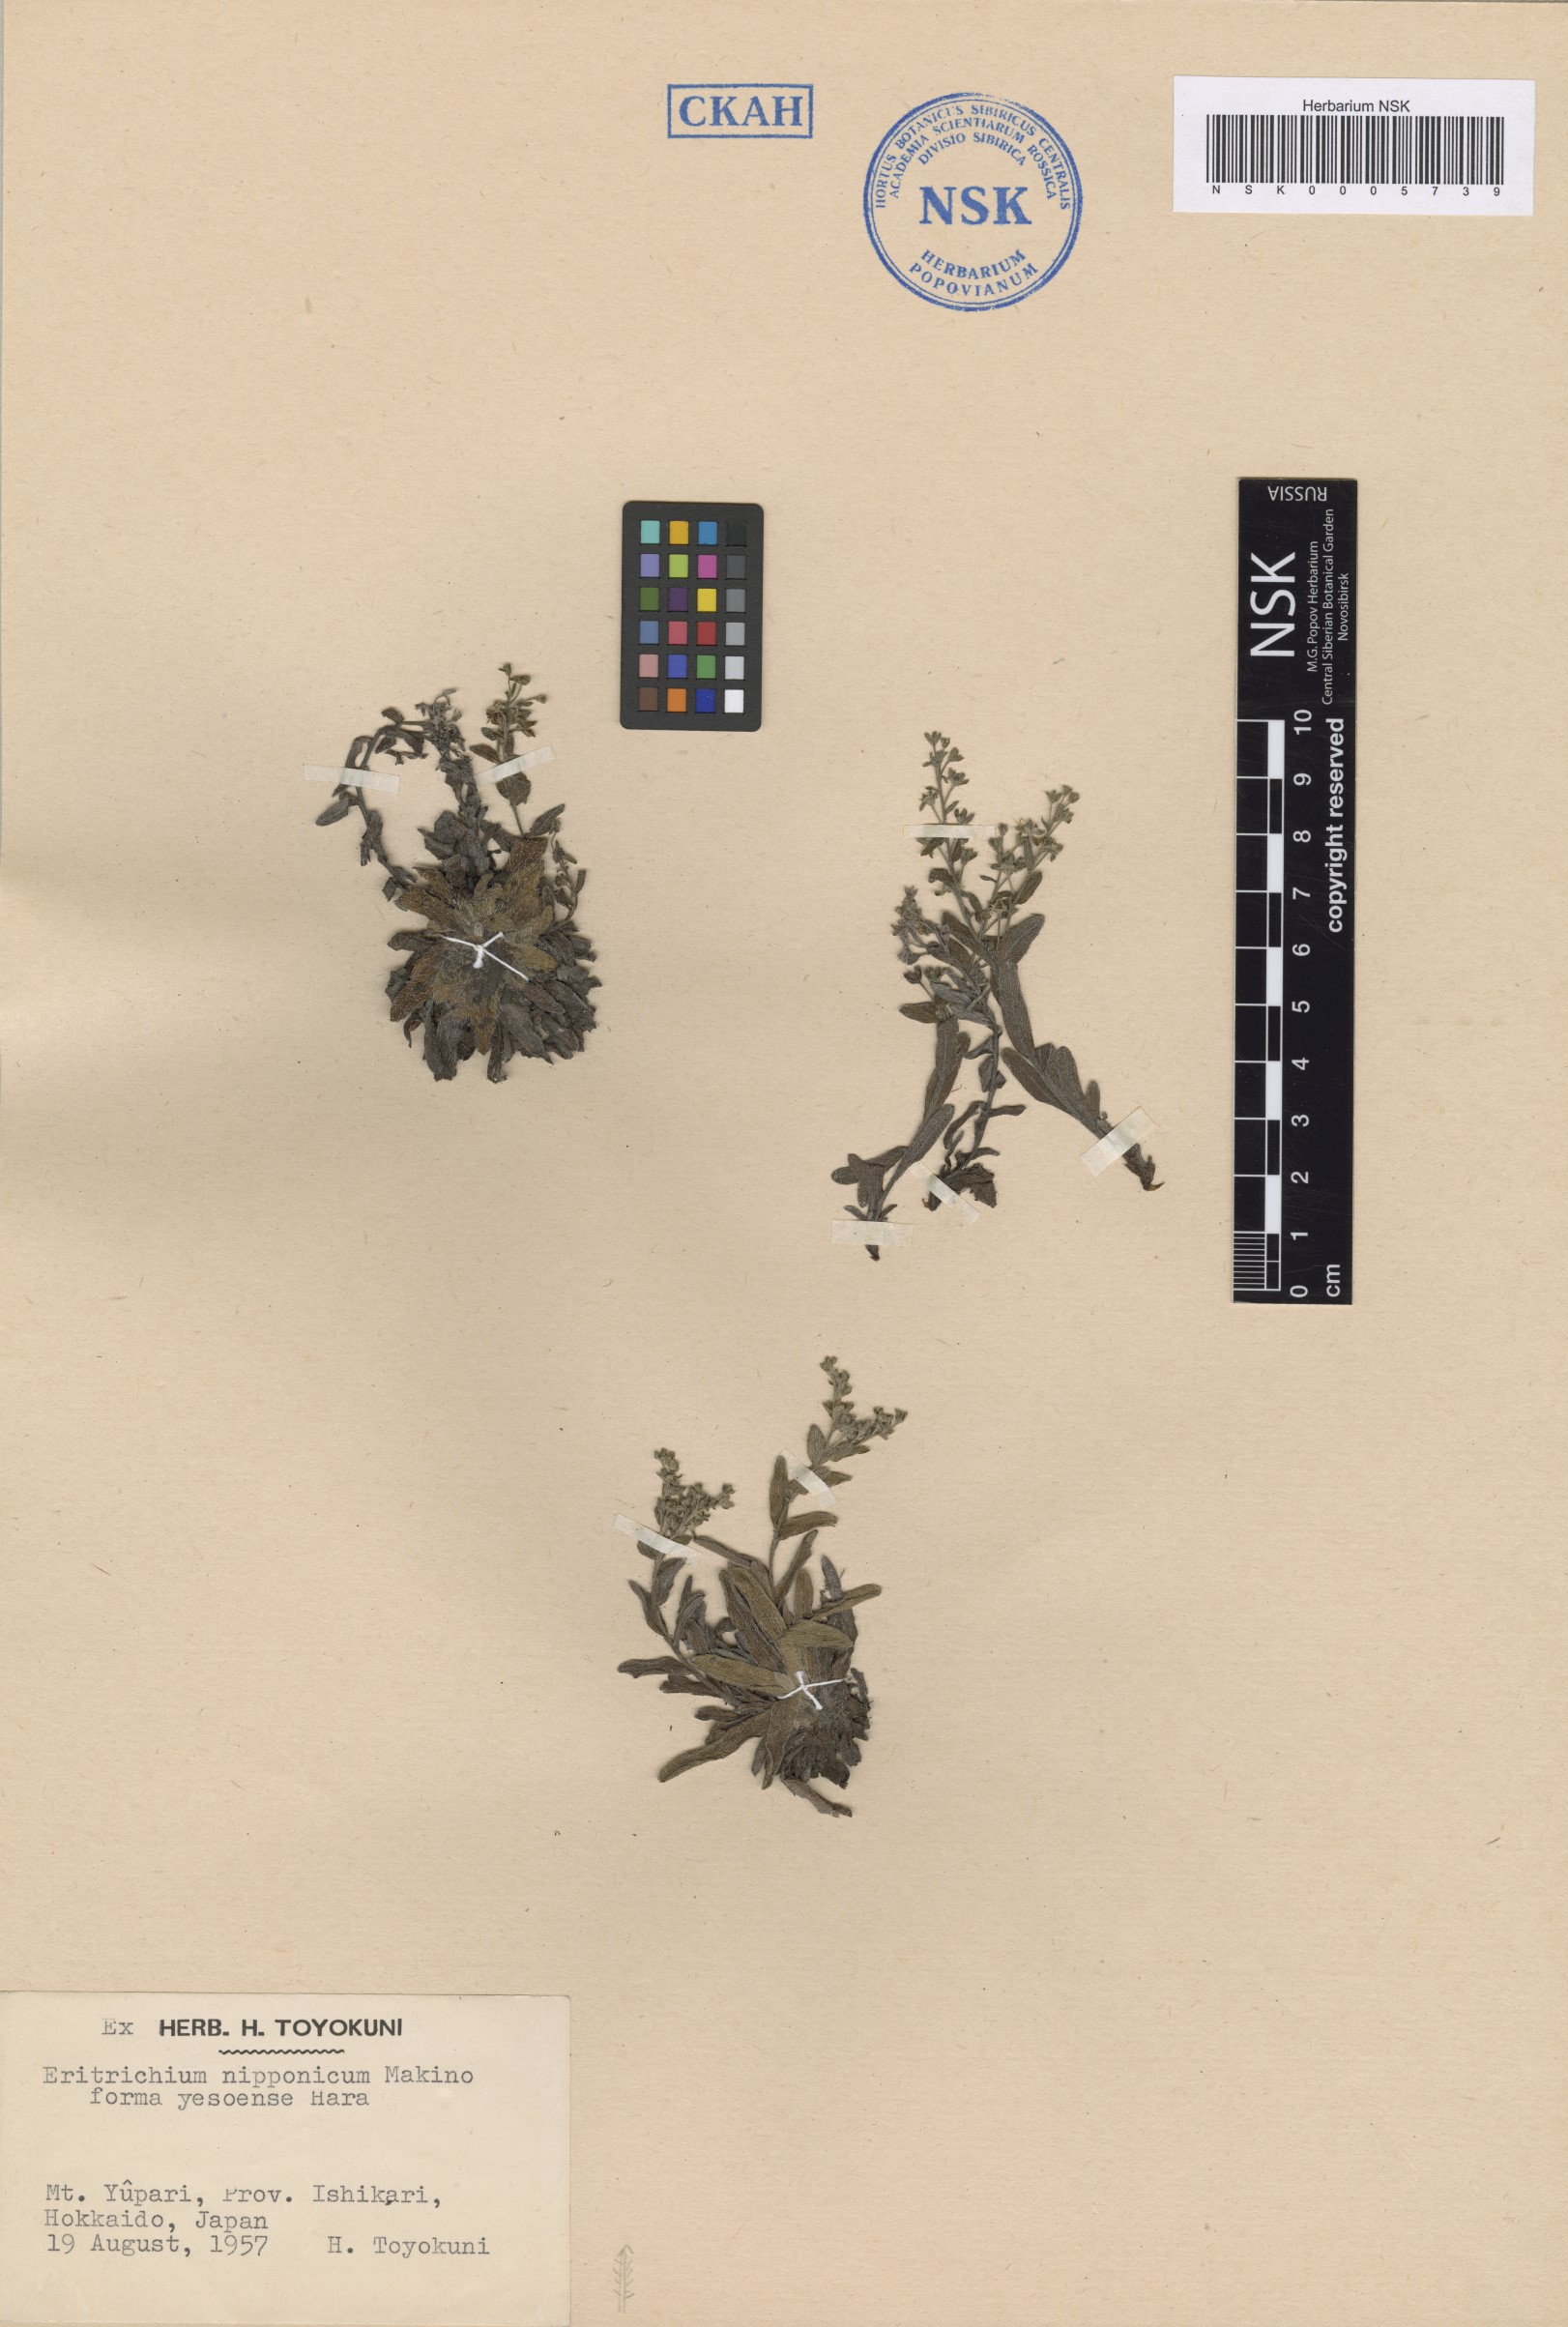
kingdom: Plantae
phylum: Tracheophyta
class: Magnoliopsida
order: Boraginales
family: Boraginaceae
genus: Eritrichium
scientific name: Eritrichium nipponicum
